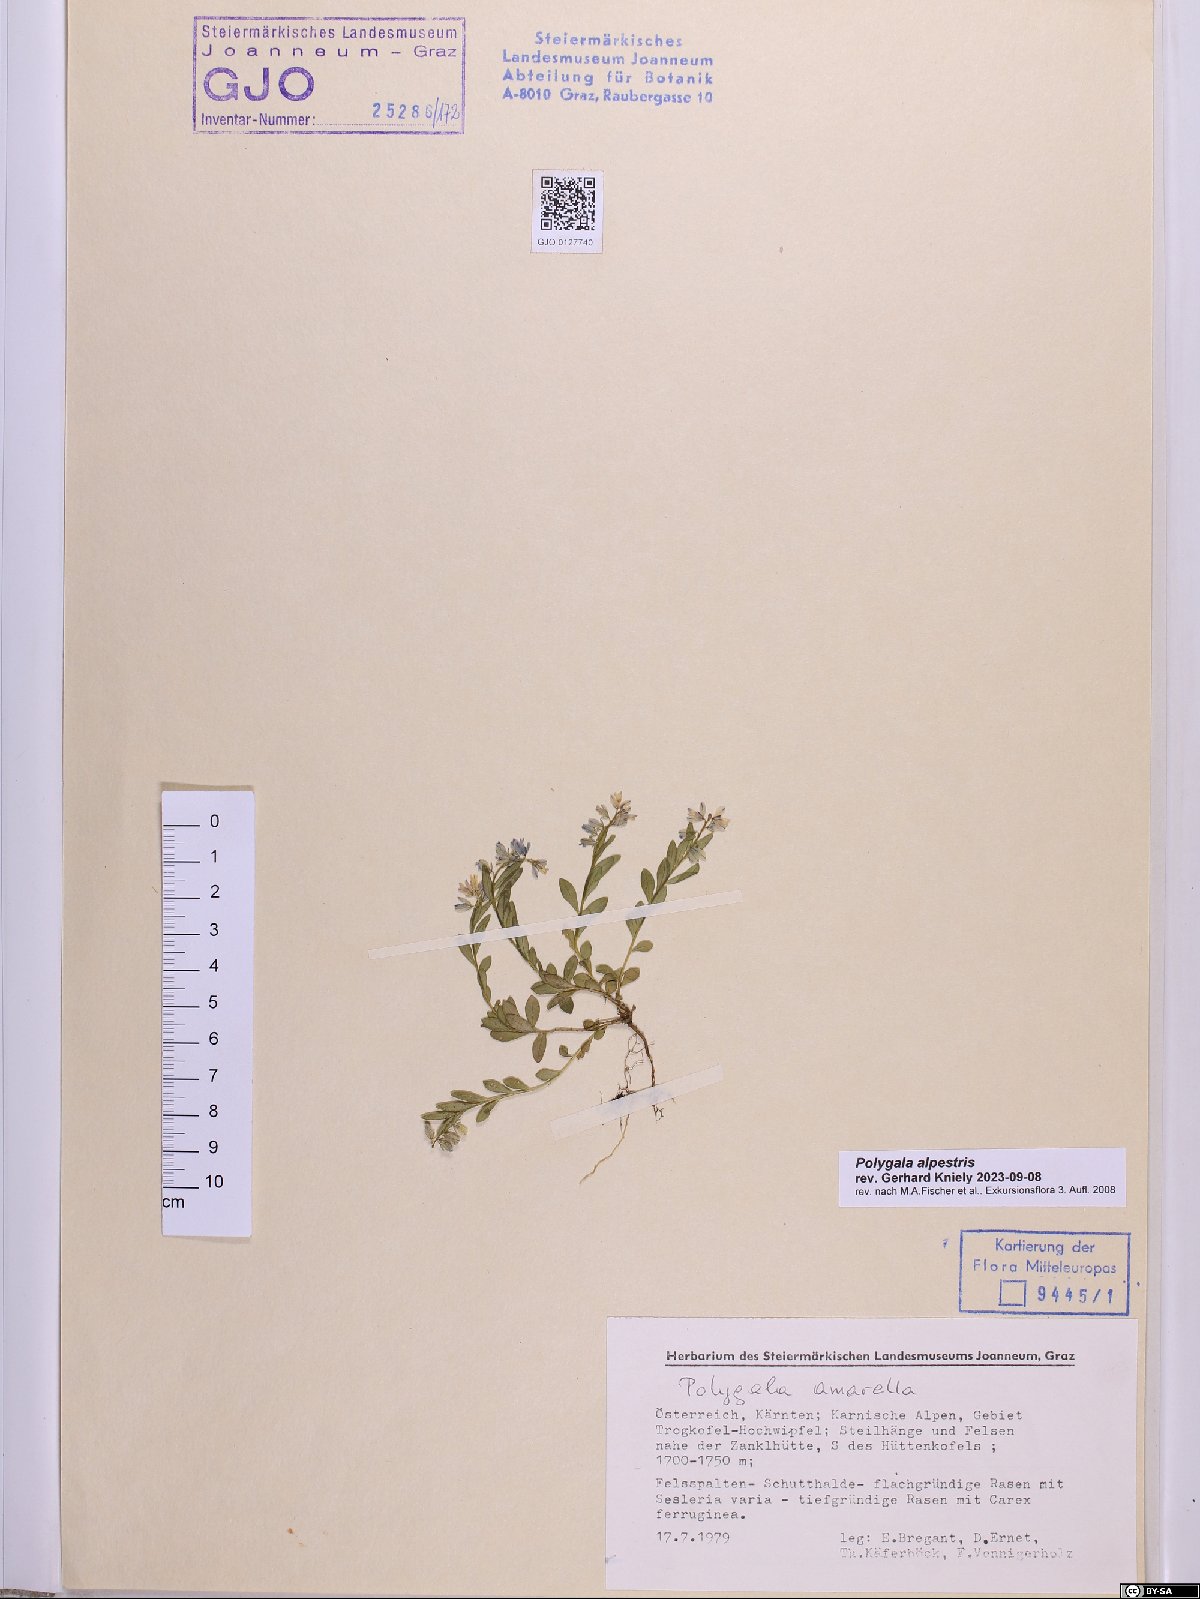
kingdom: Plantae
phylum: Tracheophyta
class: Magnoliopsida
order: Fabales
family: Polygalaceae
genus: Polygala
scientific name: Polygala alpestris
